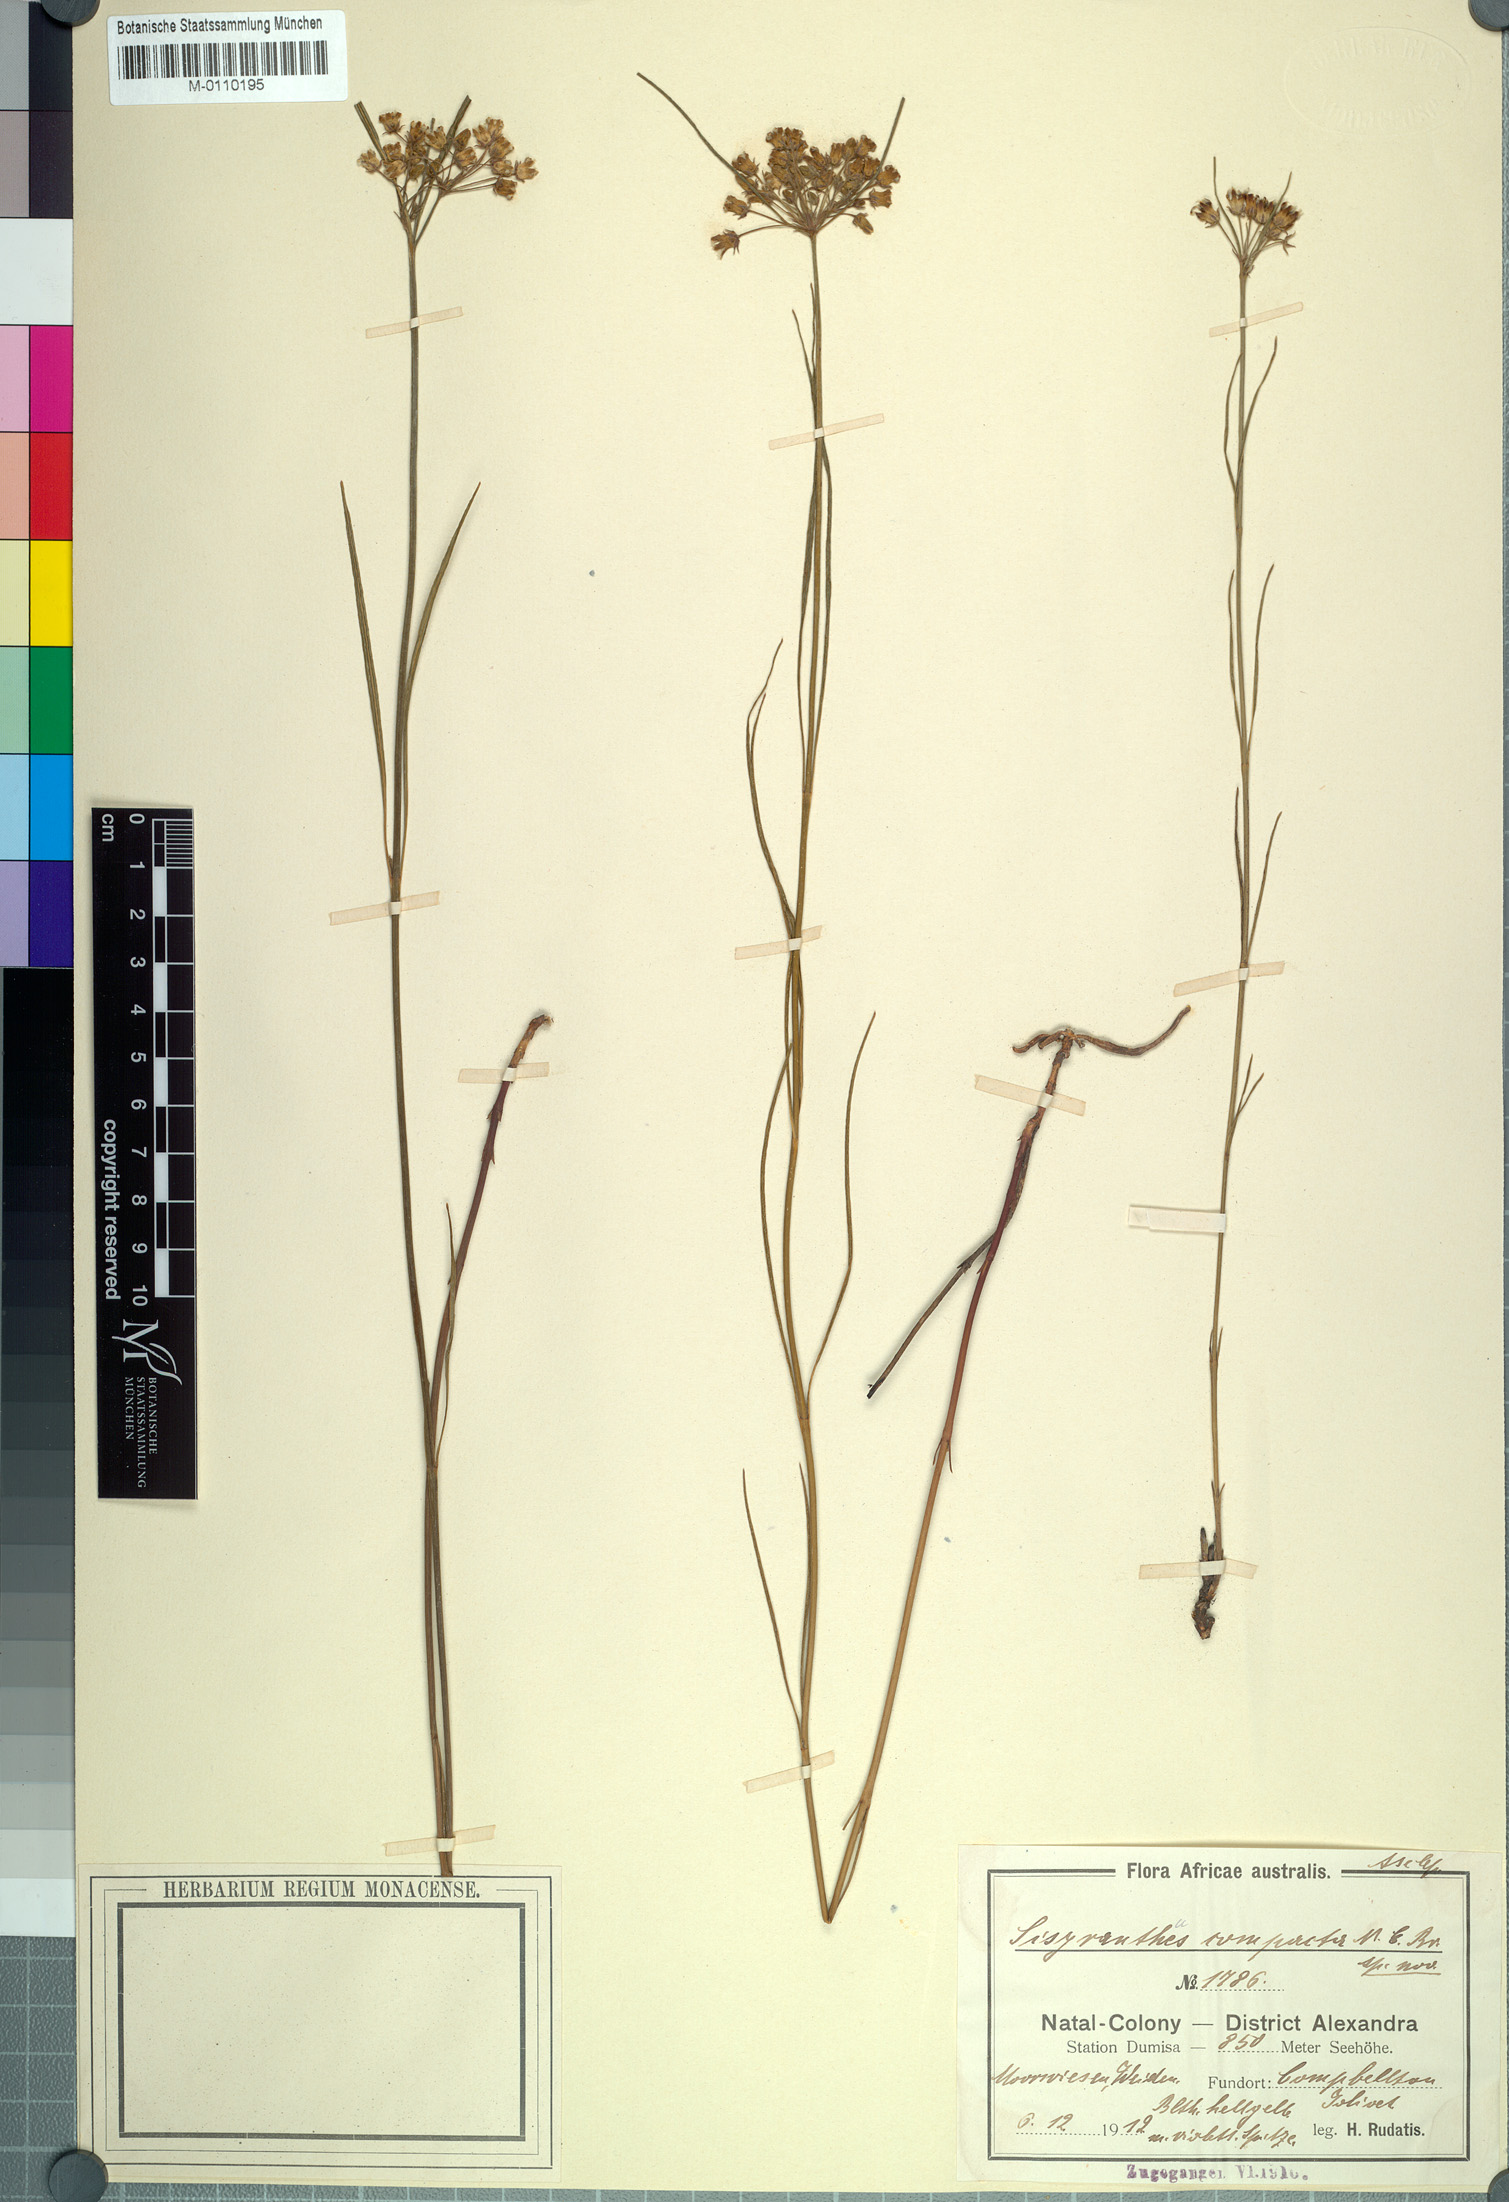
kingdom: Plantae
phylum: Tracheophyta
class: Magnoliopsida
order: Gentianales
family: Apocynaceae
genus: Sisyranthus
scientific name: Sisyranthus compactus
